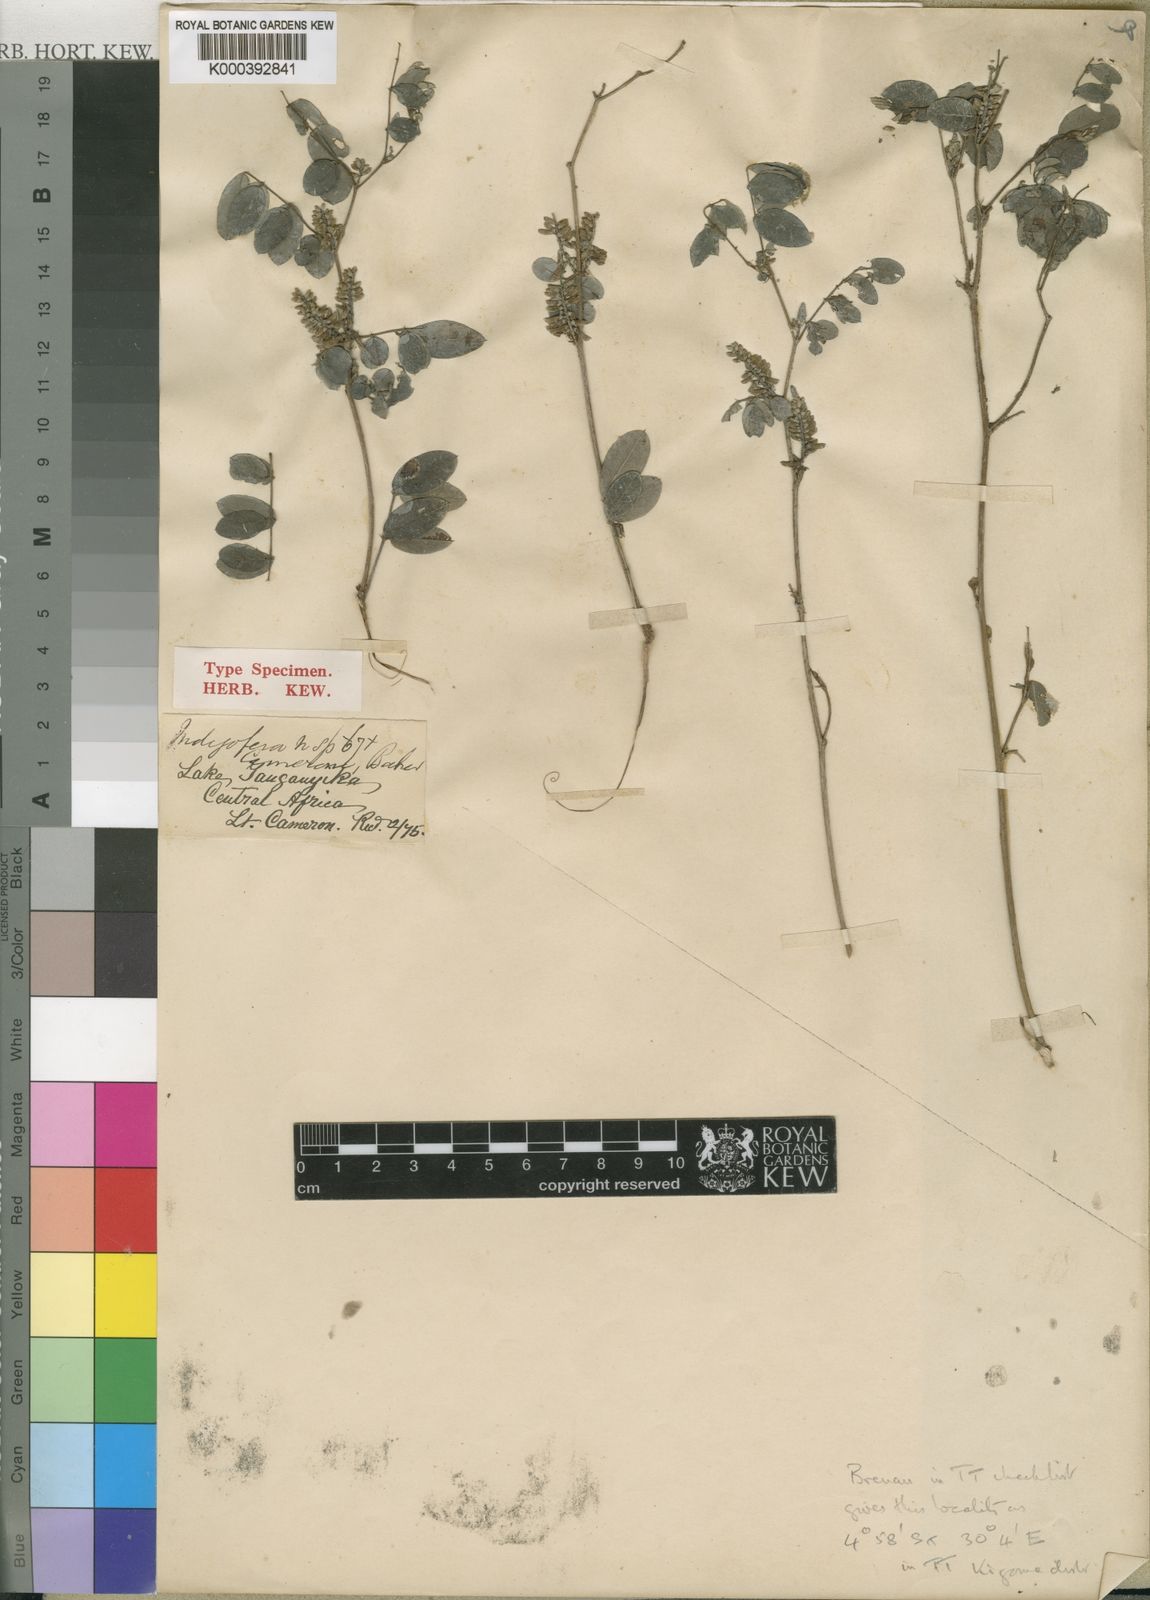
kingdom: Plantae
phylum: Tracheophyta
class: Magnoliopsida
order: Fabales
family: Fabaceae
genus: Indigofera
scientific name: Indigofera emarginella
